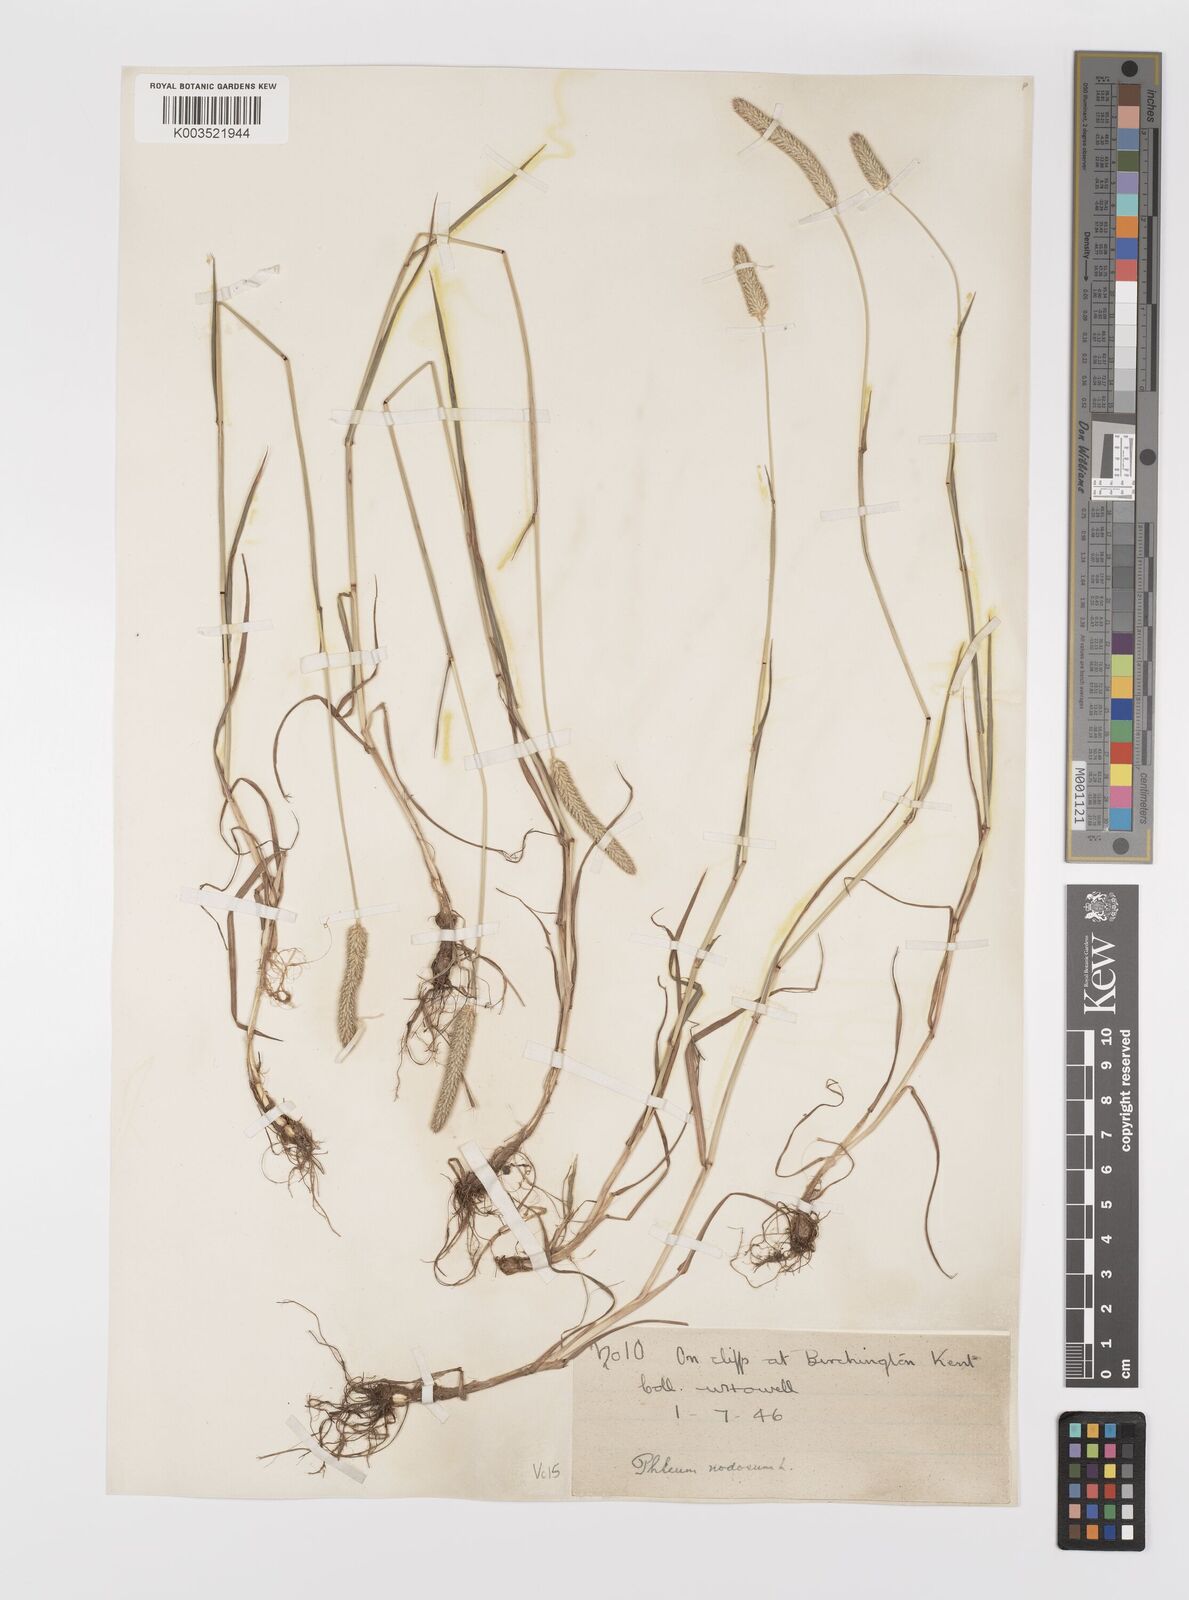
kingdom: Plantae
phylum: Tracheophyta
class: Liliopsida
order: Poales
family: Poaceae
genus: Phleum
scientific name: Phleum bertolonii
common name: Smaller cat's-tail
